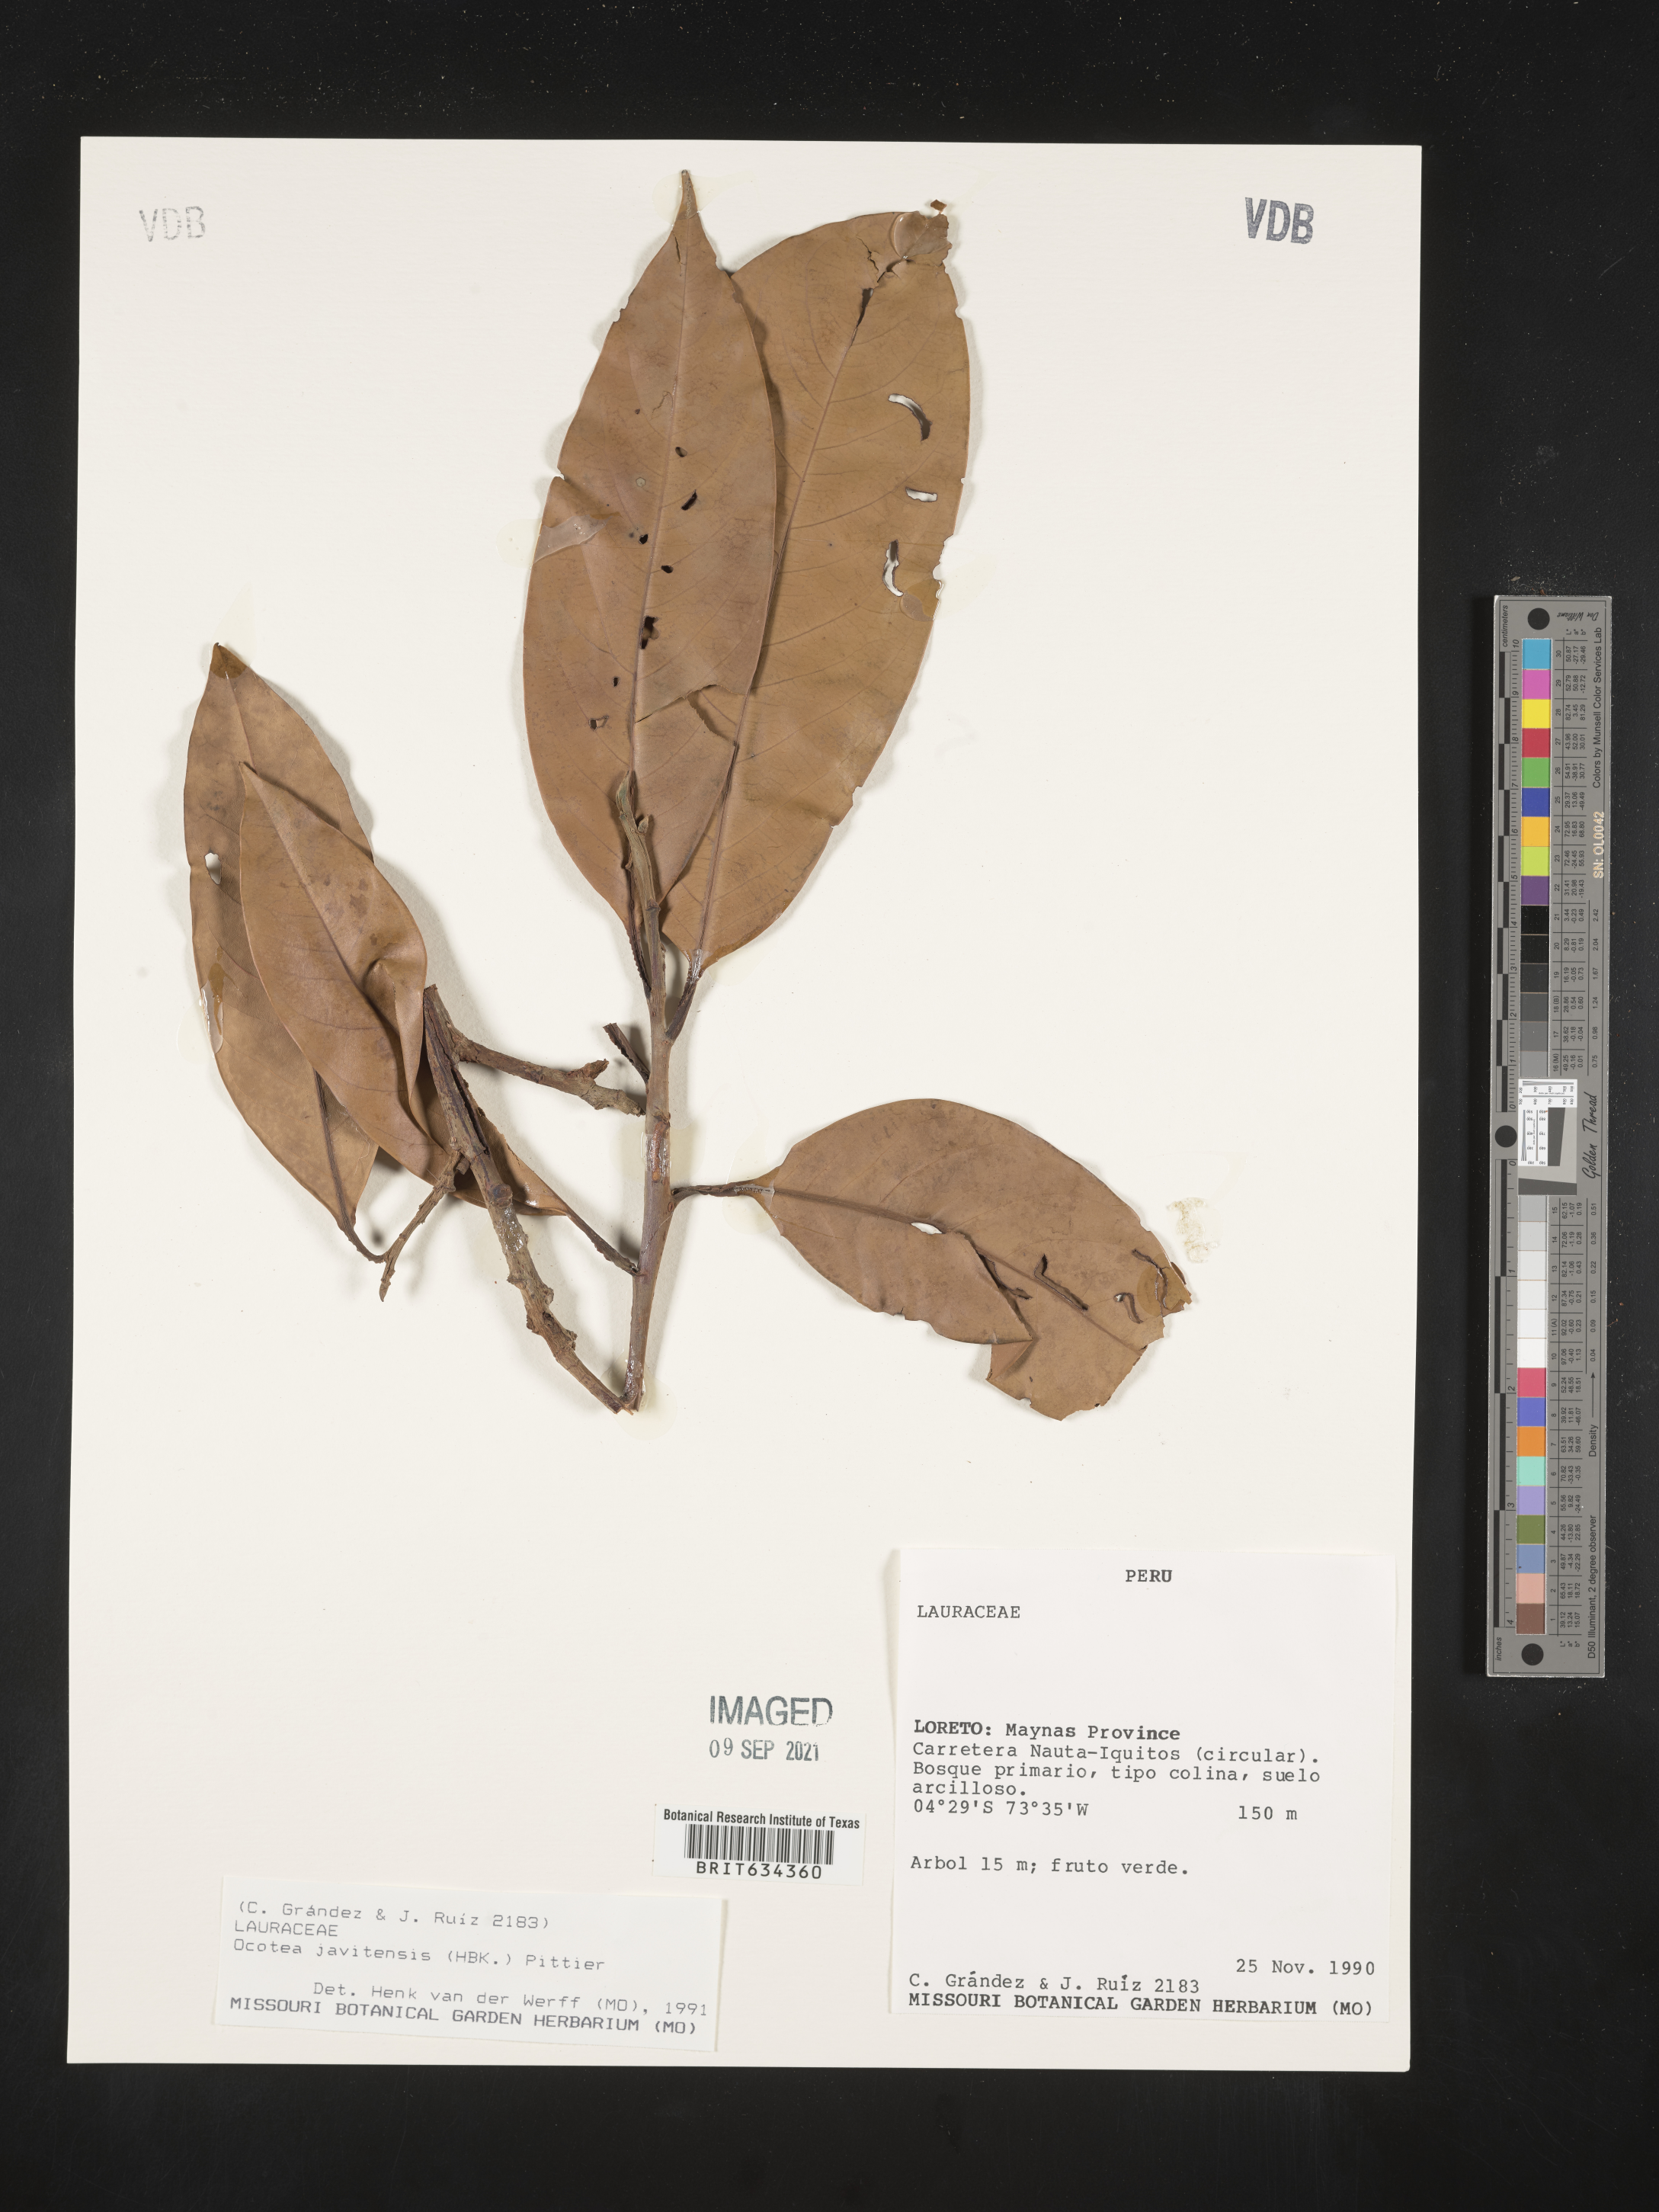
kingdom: Plantae
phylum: Tracheophyta
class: Magnoliopsida
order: Laurales
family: Lauraceae
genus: Ocotea
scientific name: Ocotea
